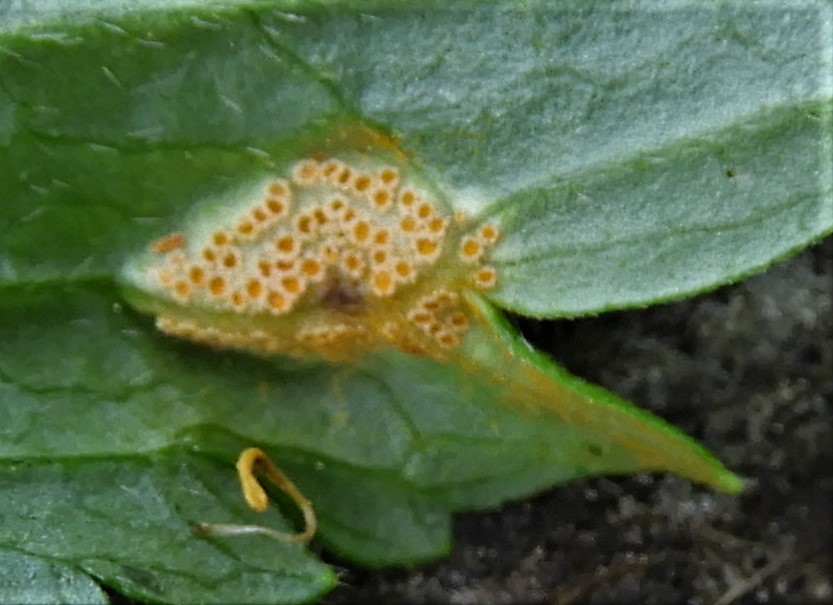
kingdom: Fungi
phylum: Basidiomycota
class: Pucciniomycetes
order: Pucciniales
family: Pucciniaceae
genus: Puccinia
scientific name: Puccinia urticata
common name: nældegalle-tvecellerust
